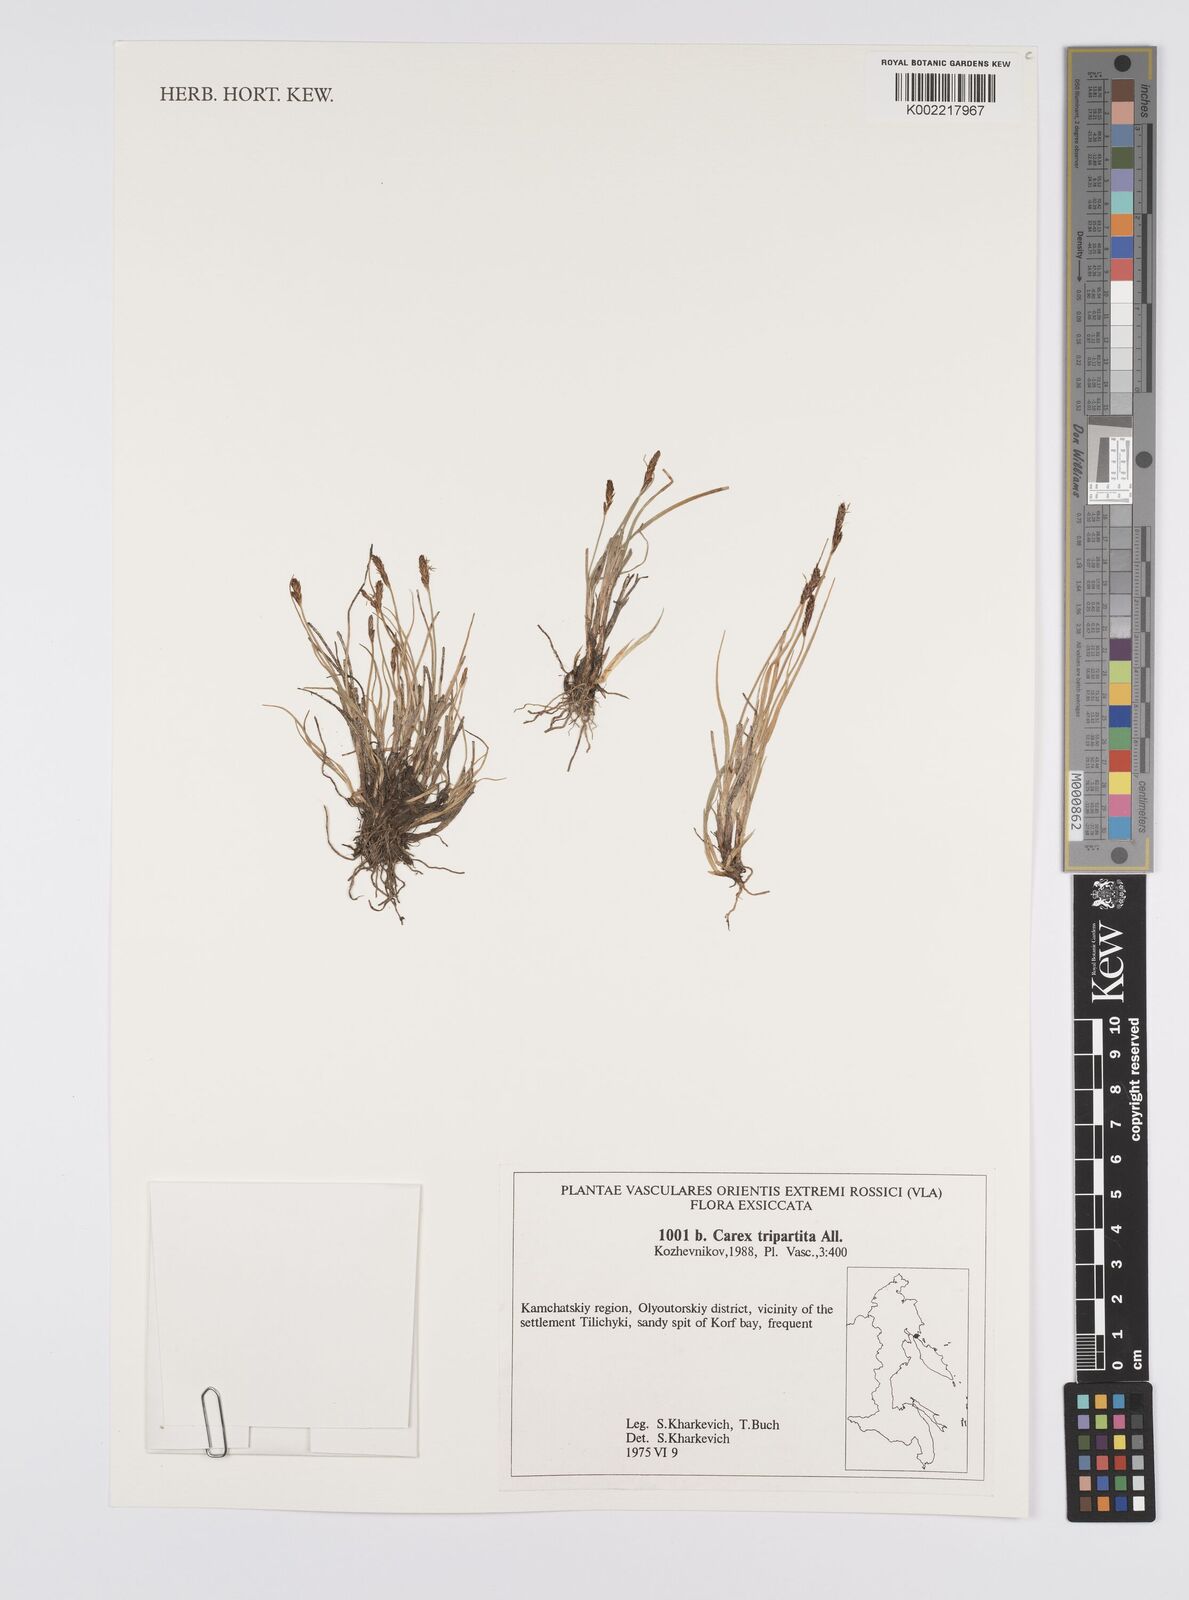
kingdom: Plantae
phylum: Tracheophyta
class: Liliopsida
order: Poales
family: Cyperaceae
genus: Carex
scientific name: Carex curvula
